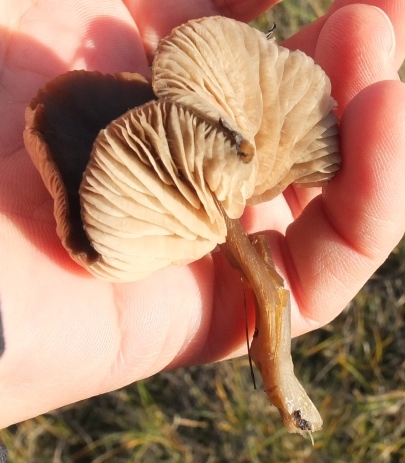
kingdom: Fungi
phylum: Basidiomycota
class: Agaricomycetes
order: Agaricales
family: Entolomataceae
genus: Entoloma
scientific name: Entoloma sericeum
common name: silkeglinsende rødblad
